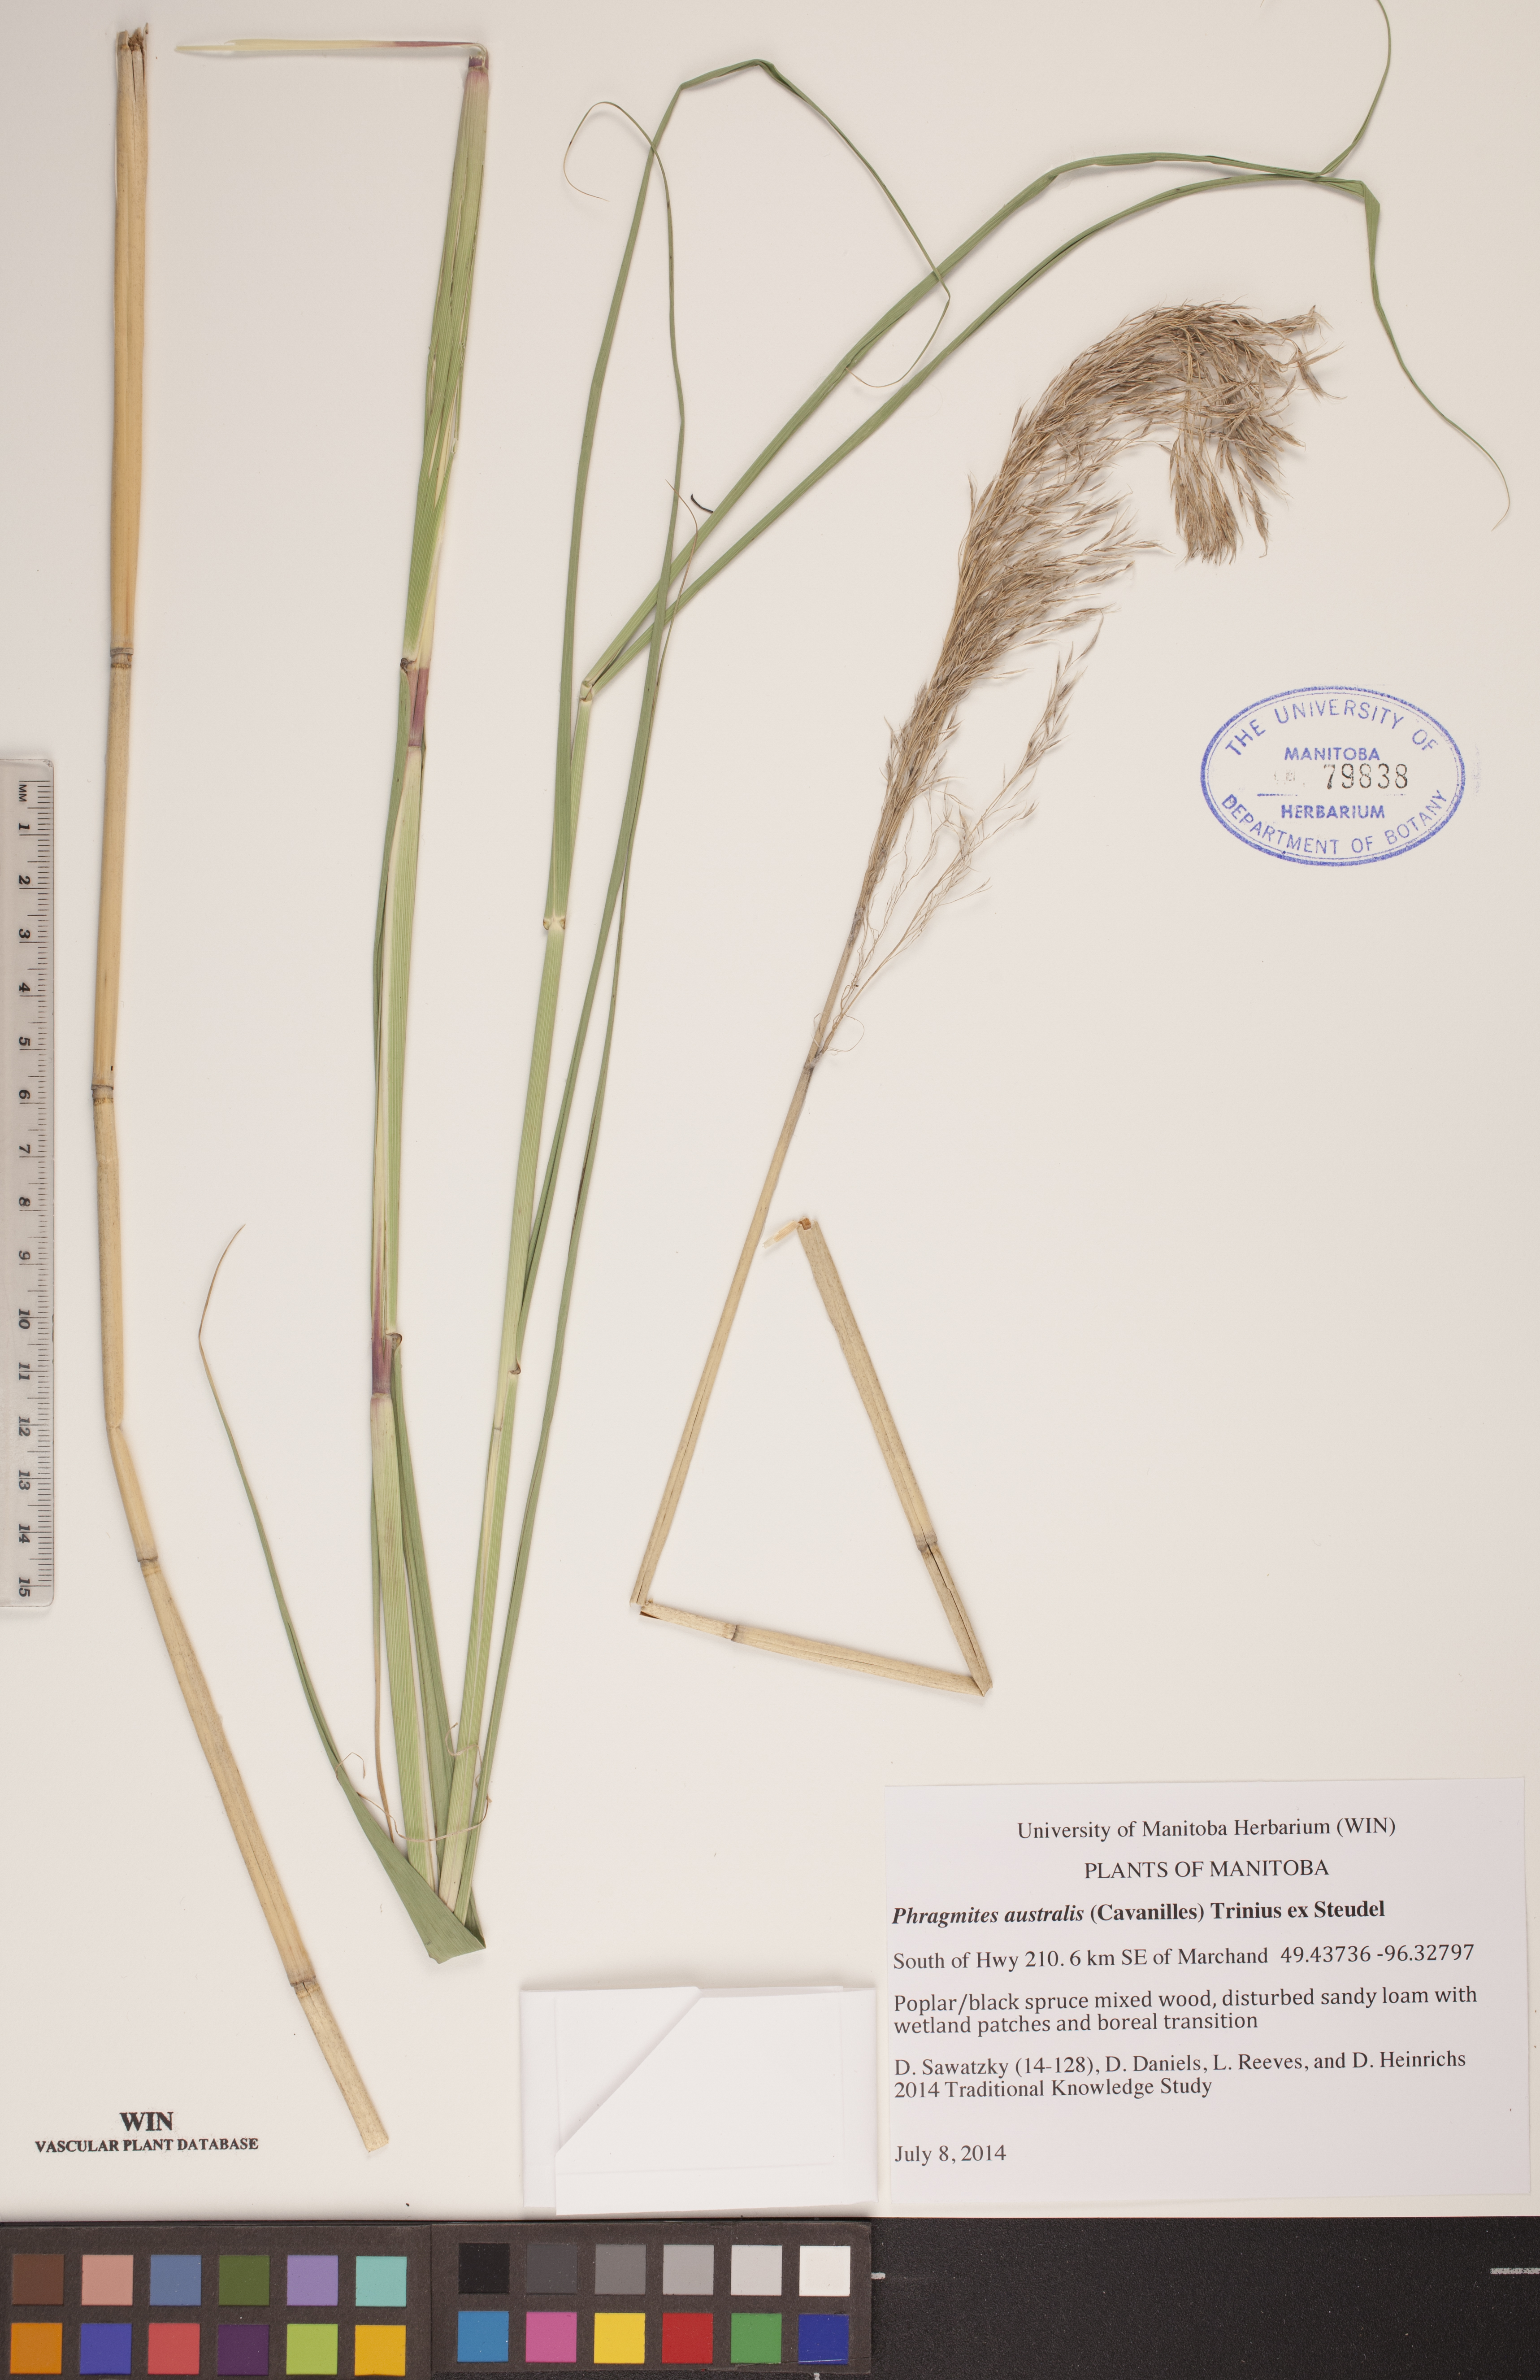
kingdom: Plantae
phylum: Tracheophyta
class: Liliopsida
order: Poales
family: Poaceae
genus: Phragmites
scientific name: Phragmites australis
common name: Common reed
